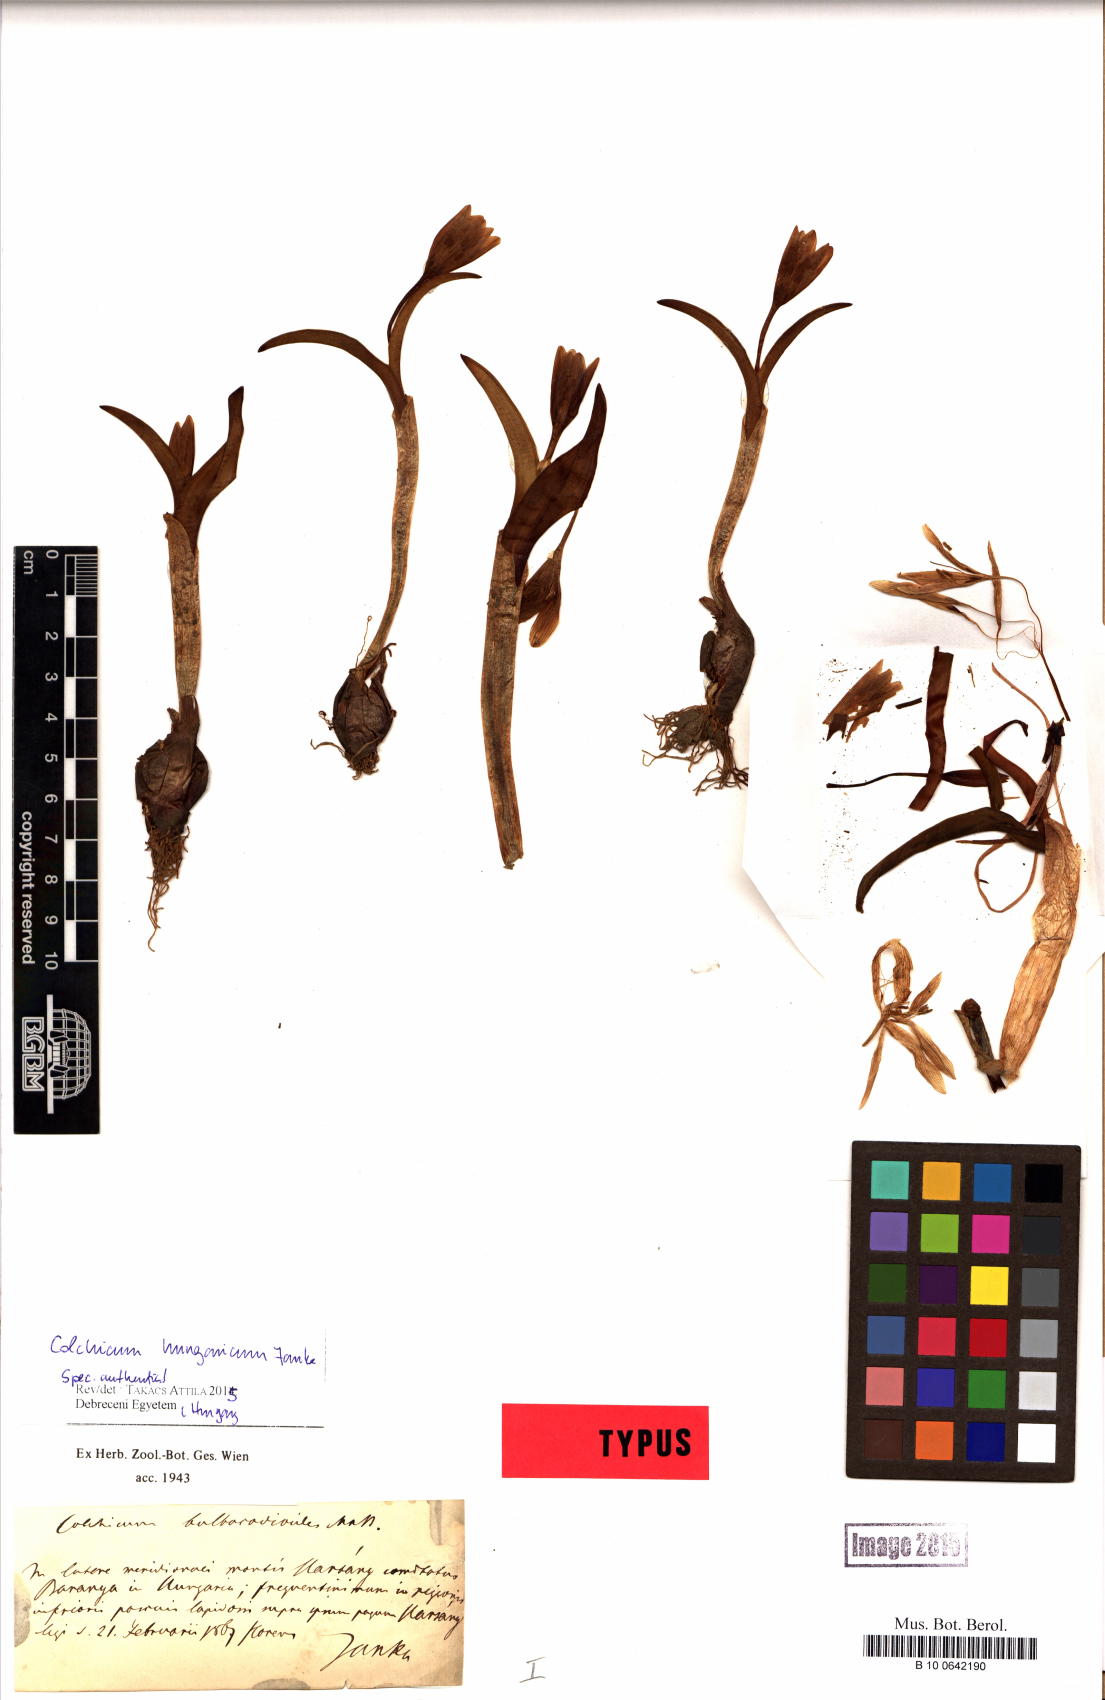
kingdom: Plantae
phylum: Tracheophyta
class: Liliopsida
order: Liliales
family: Colchicaceae
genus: Colchicum
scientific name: Colchicum hungaricum
